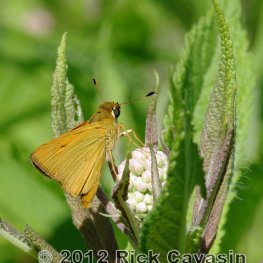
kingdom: Animalia
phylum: Arthropoda
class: Insecta
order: Lepidoptera
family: Hesperiidae
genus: Atrytone
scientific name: Atrytone delaware
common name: Delaware Skipper
